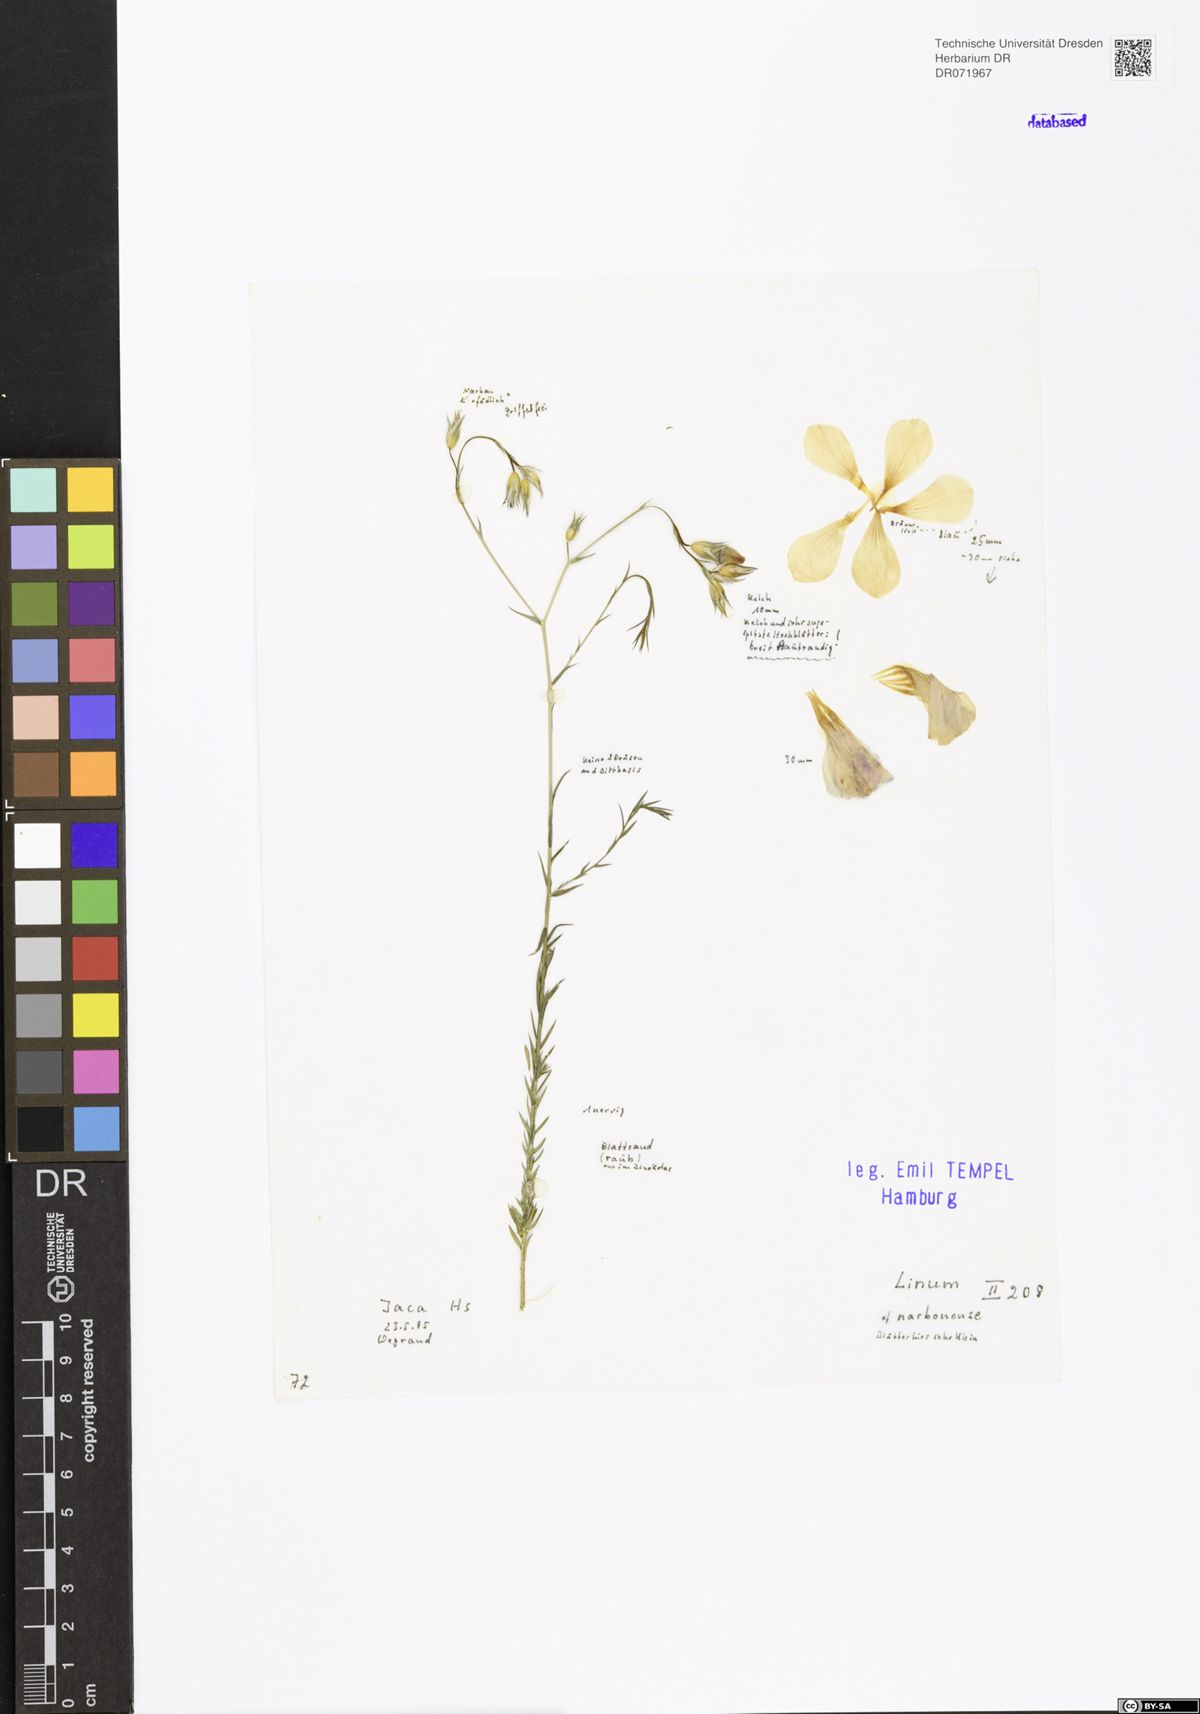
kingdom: Plantae
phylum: Tracheophyta
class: Magnoliopsida
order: Malpighiales
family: Linaceae
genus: Linum
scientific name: Linum narbonense
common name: Flax
